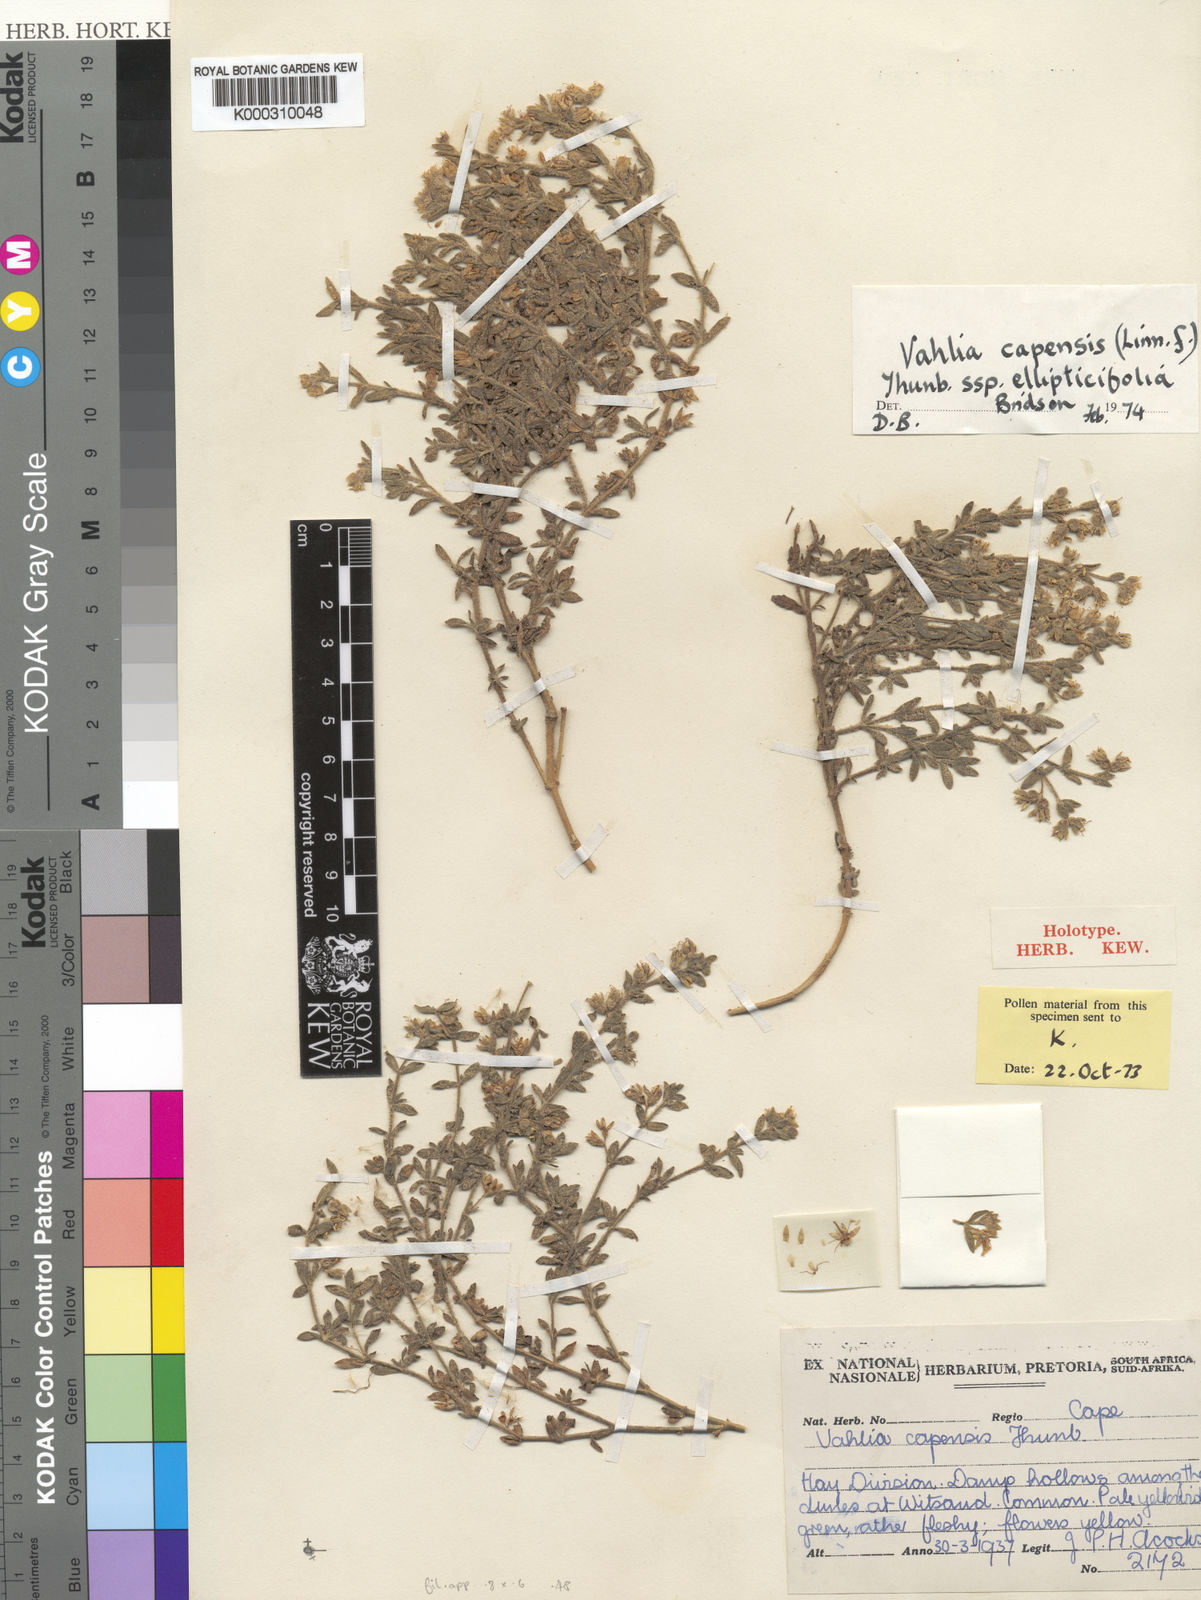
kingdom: Plantae
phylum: Tracheophyta
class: Magnoliopsida
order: Vahliales
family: Vahliaceae
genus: Vahlia
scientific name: Vahlia capensis
